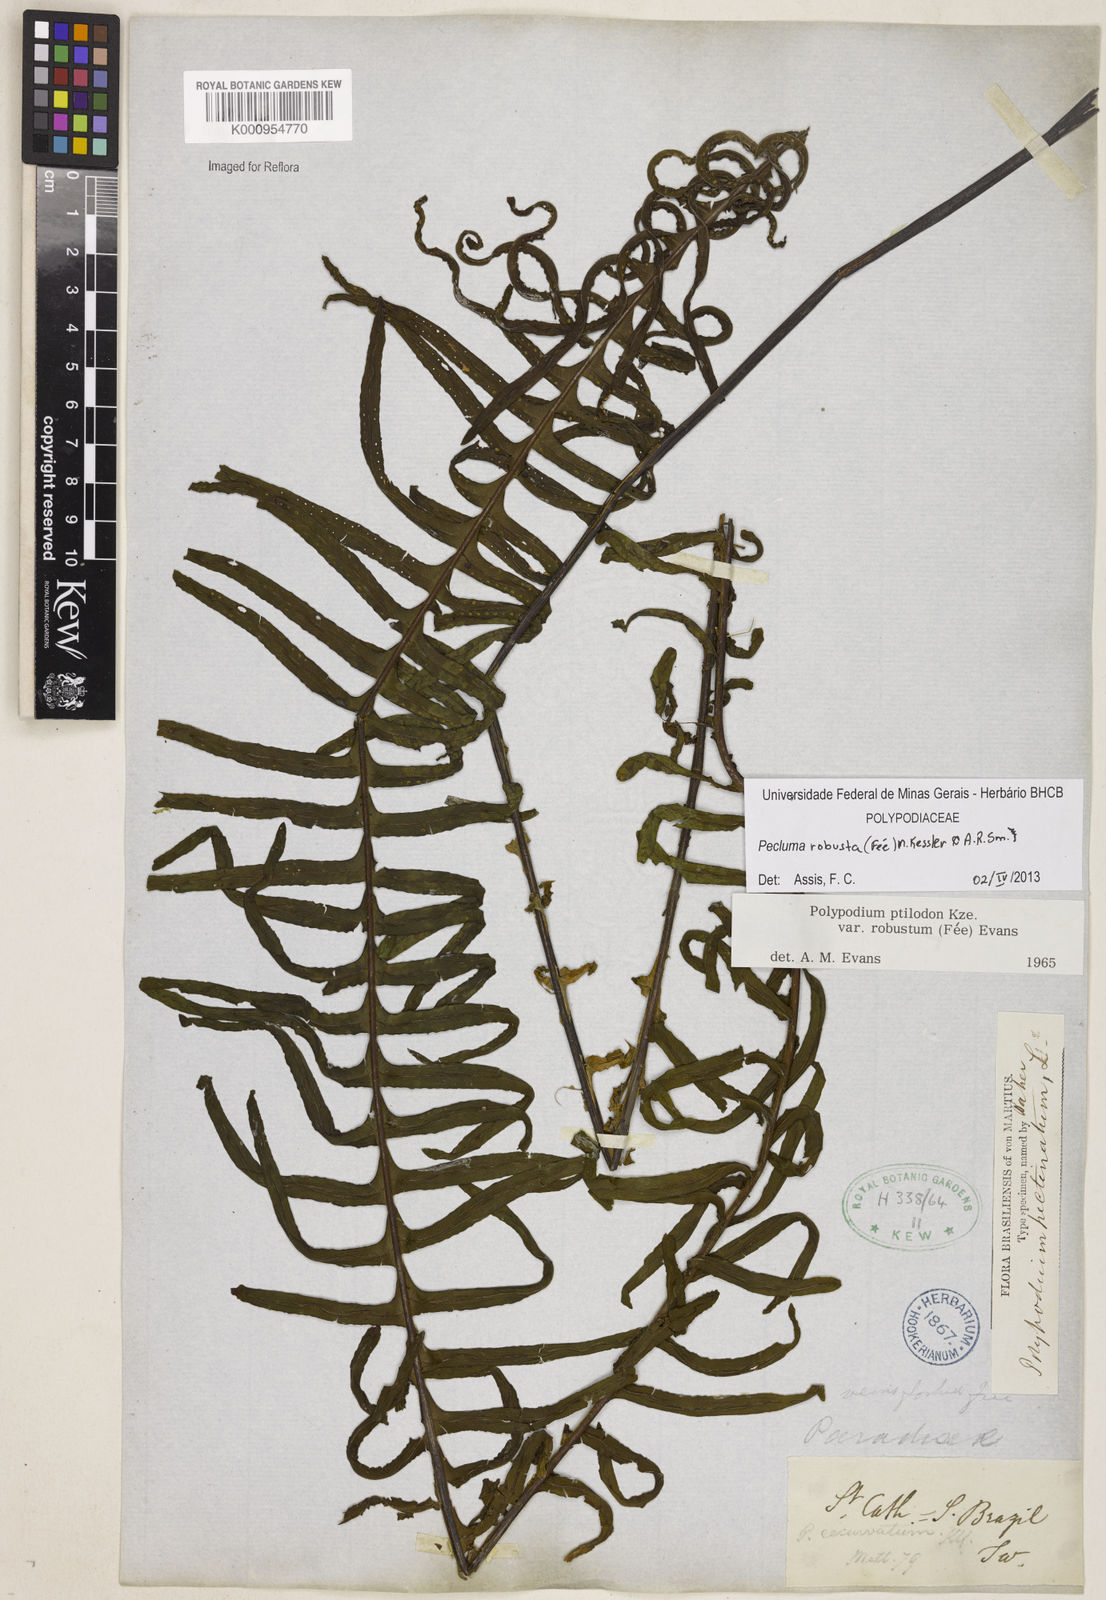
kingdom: Plantae
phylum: Tracheophyta
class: Polypodiopsida
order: Polypodiales
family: Polypodiaceae
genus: Pecluma
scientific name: Pecluma
